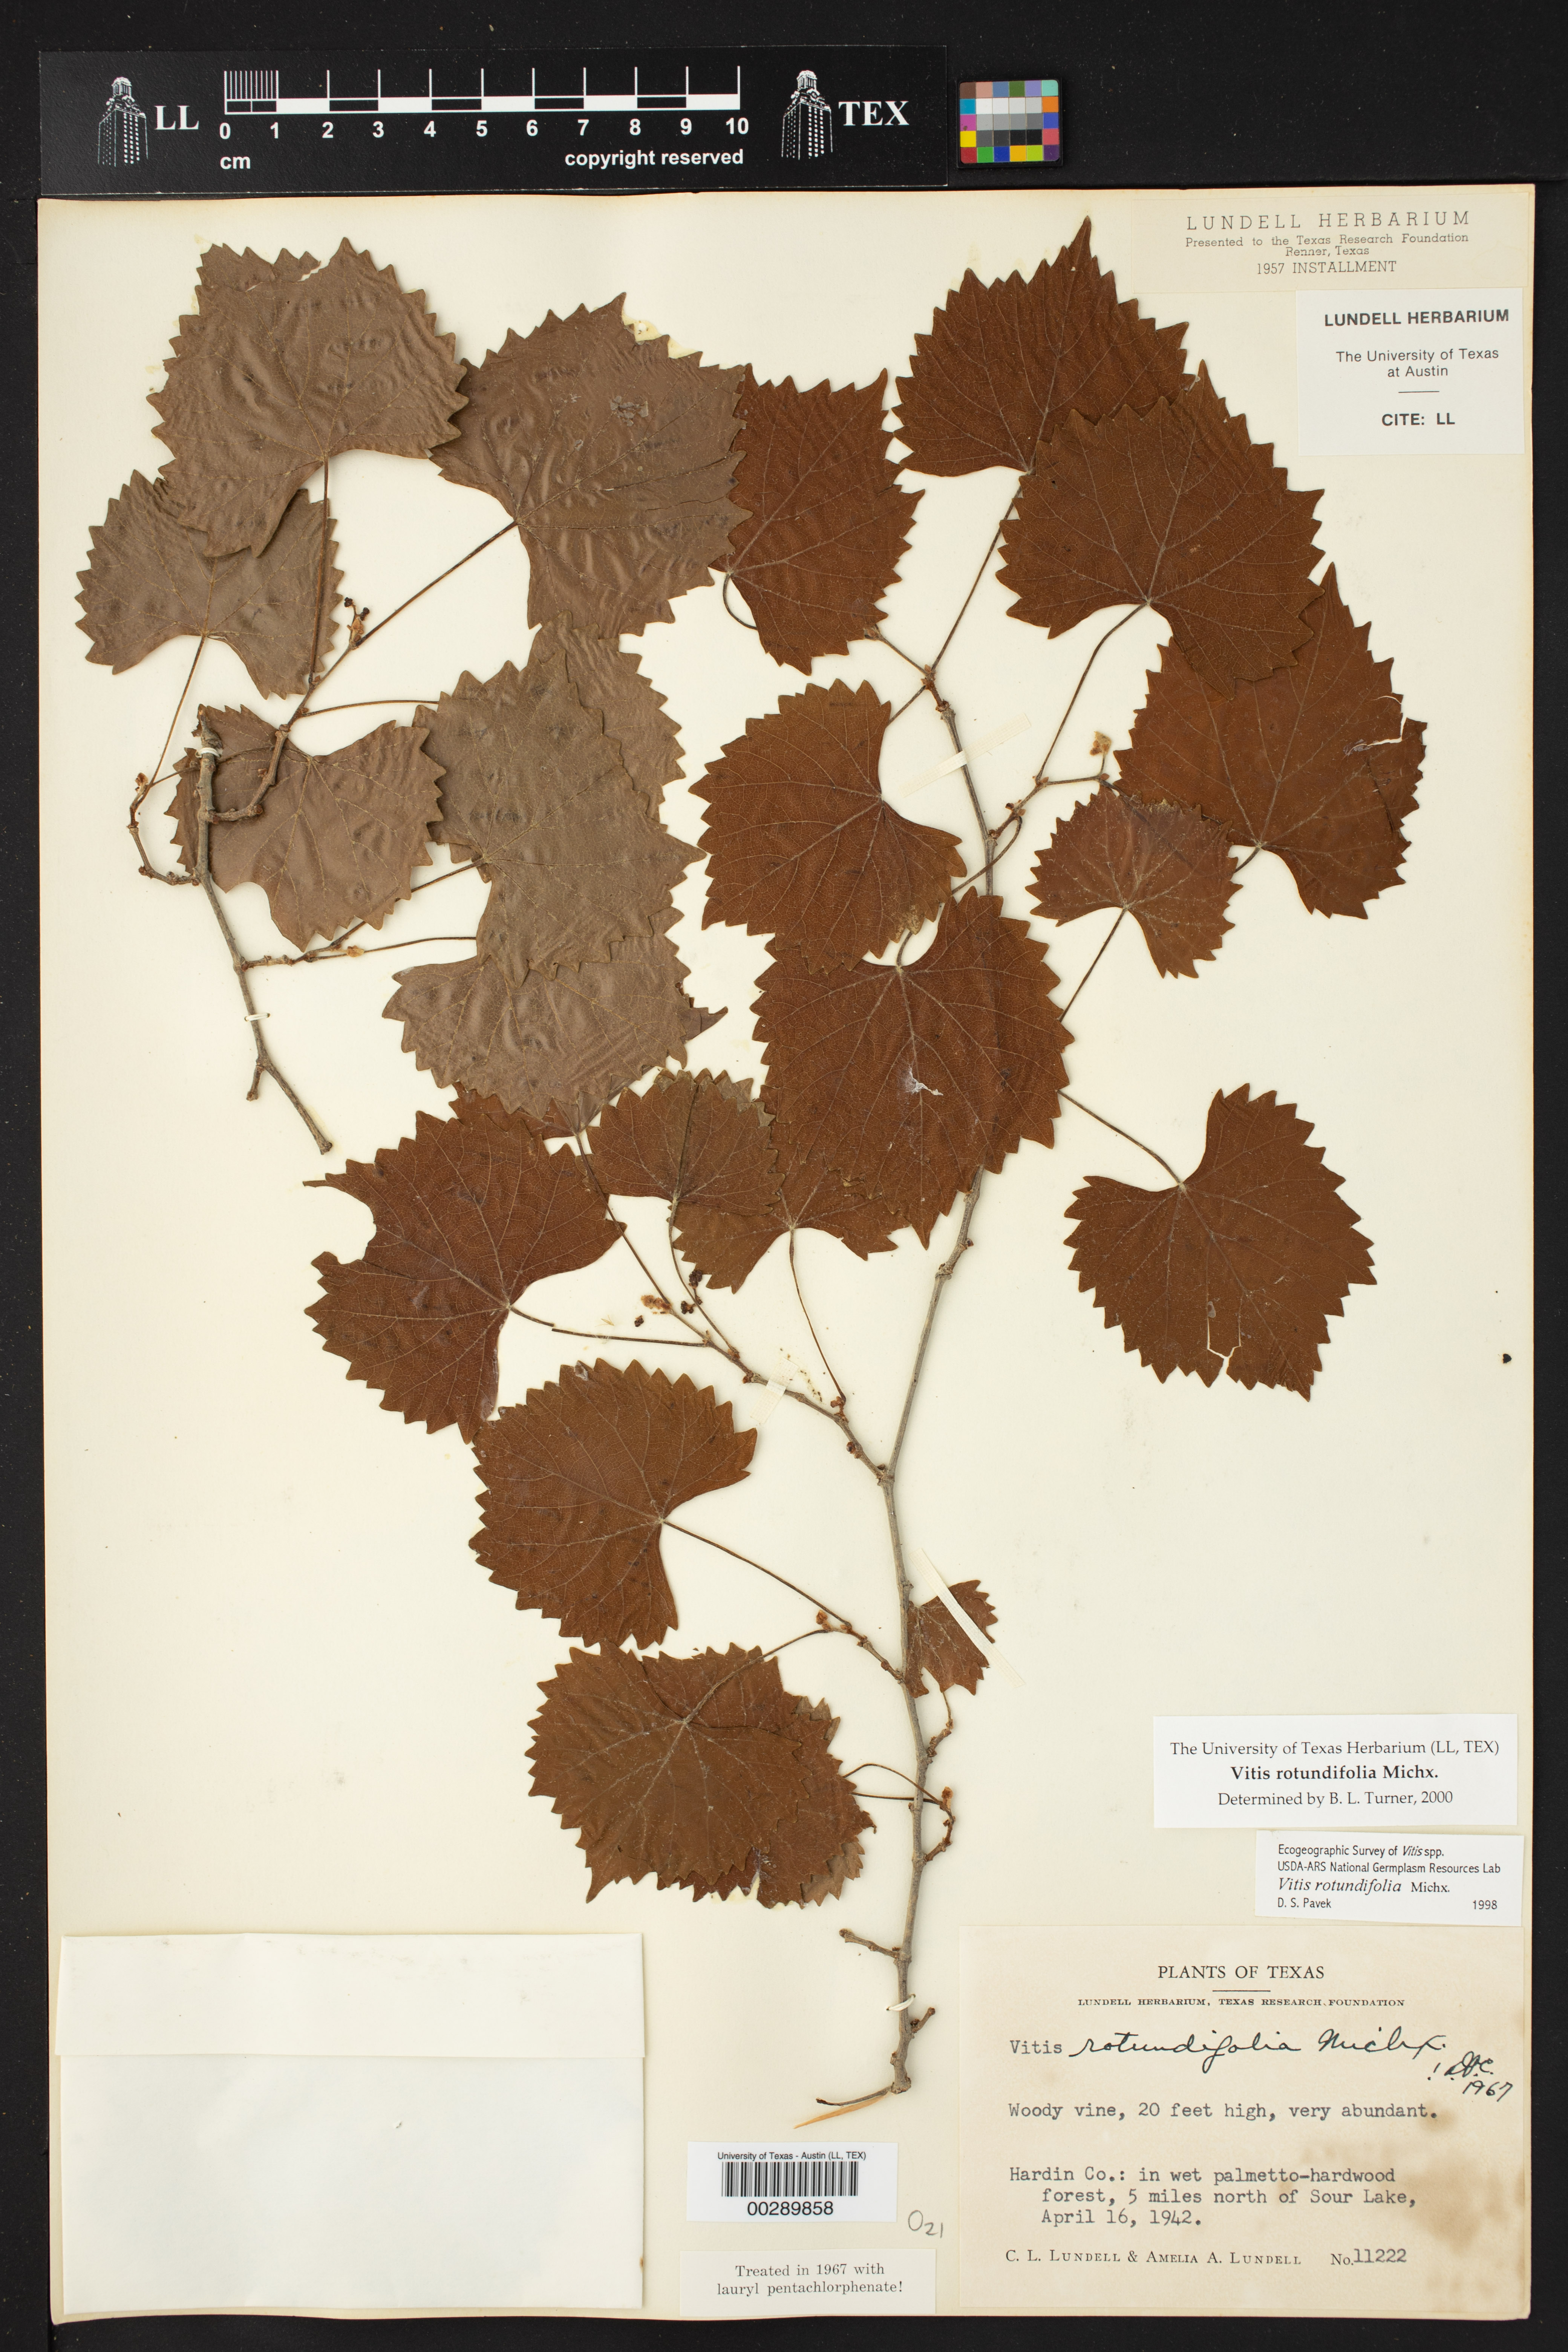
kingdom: Plantae
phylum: Tracheophyta
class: Magnoliopsida
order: Vitales
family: Vitaceae
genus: Vitis
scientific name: Vitis rotundifolia
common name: Muscadine grape
